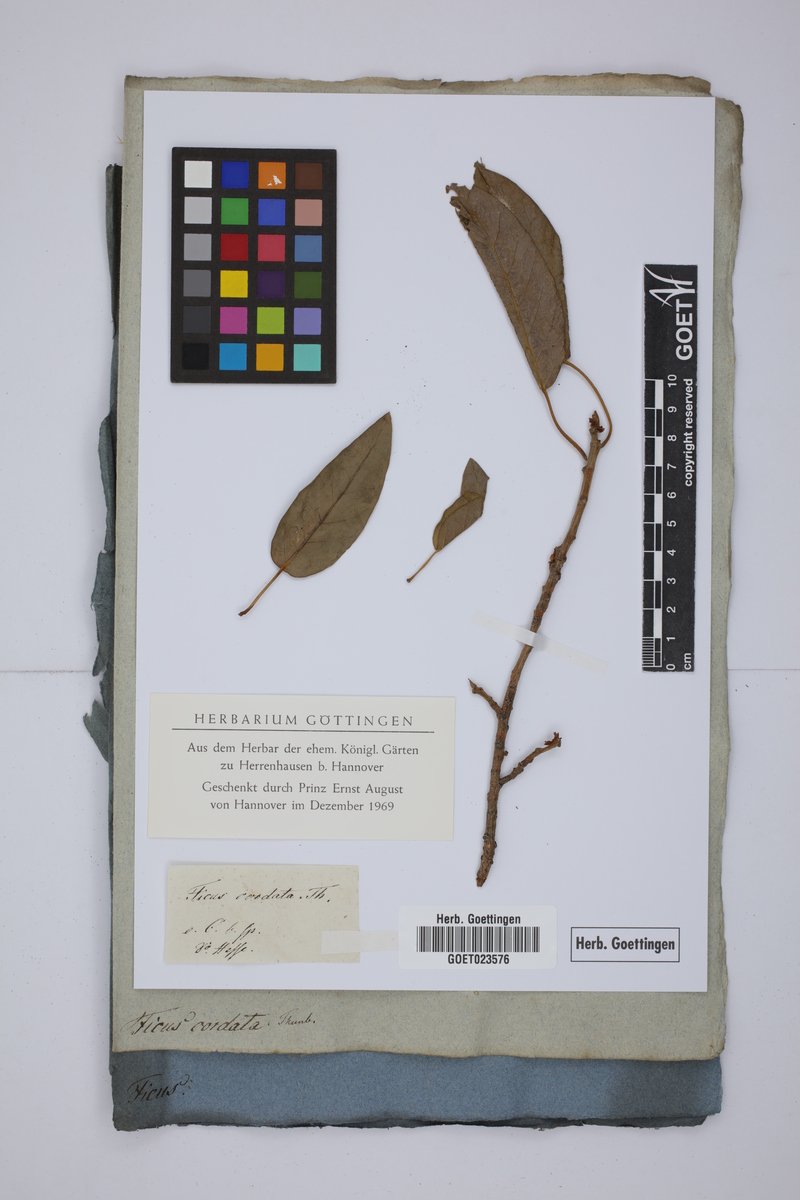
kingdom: Plantae
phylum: Tracheophyta
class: Magnoliopsida
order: Rosales
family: Moraceae
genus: Ficus
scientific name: Ficus cordata
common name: Namaqua rock fig
